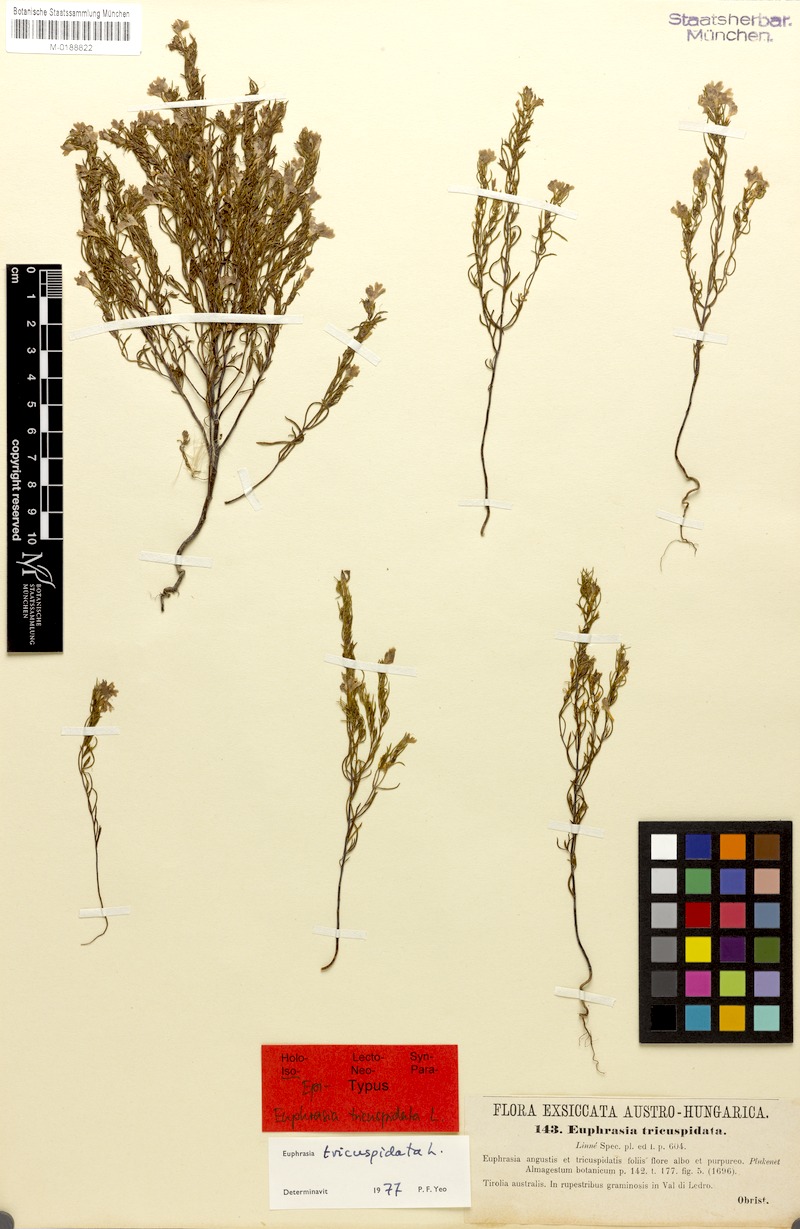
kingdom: Plantae
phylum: Tracheophyta
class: Magnoliopsida
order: Lamiales
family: Orobanchaceae
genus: Euphrasia
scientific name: Euphrasia tricuspidata
